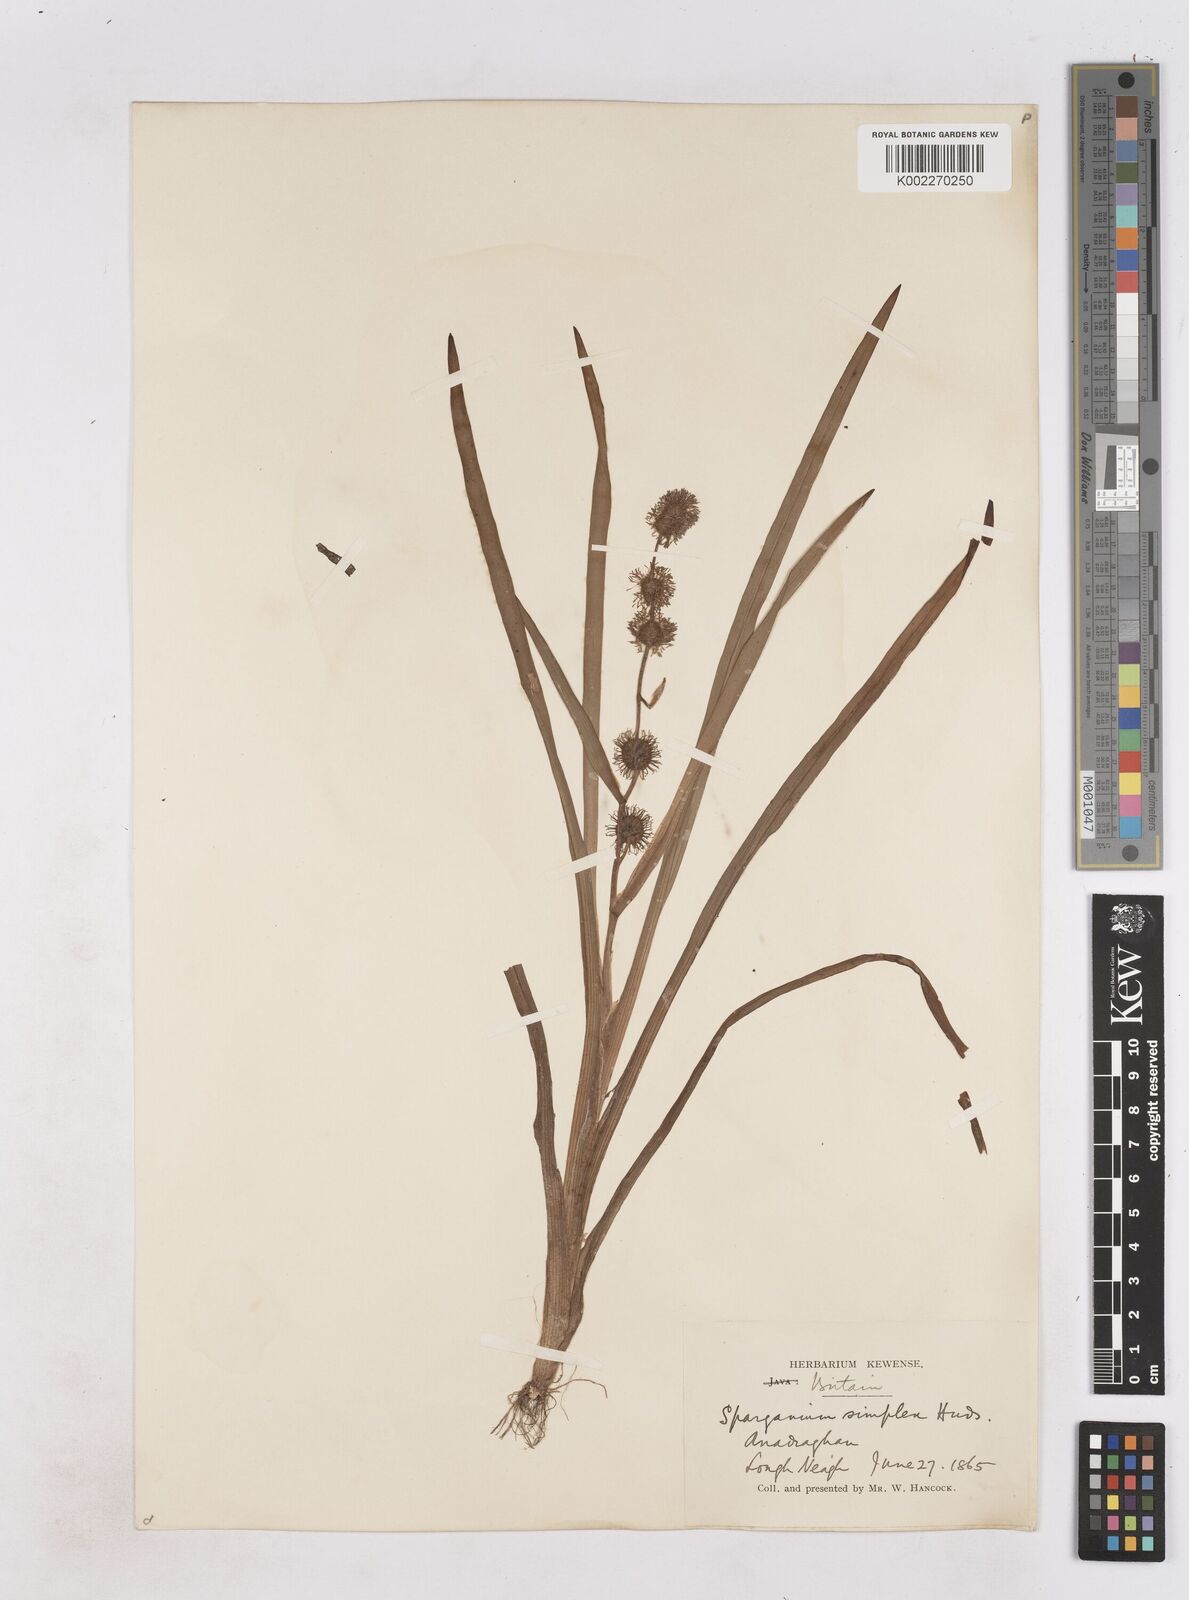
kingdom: Plantae
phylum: Tracheophyta
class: Liliopsida
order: Poales
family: Typhaceae
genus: Sparganium
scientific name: Sparganium emersum
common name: Unbranched bur-reed
